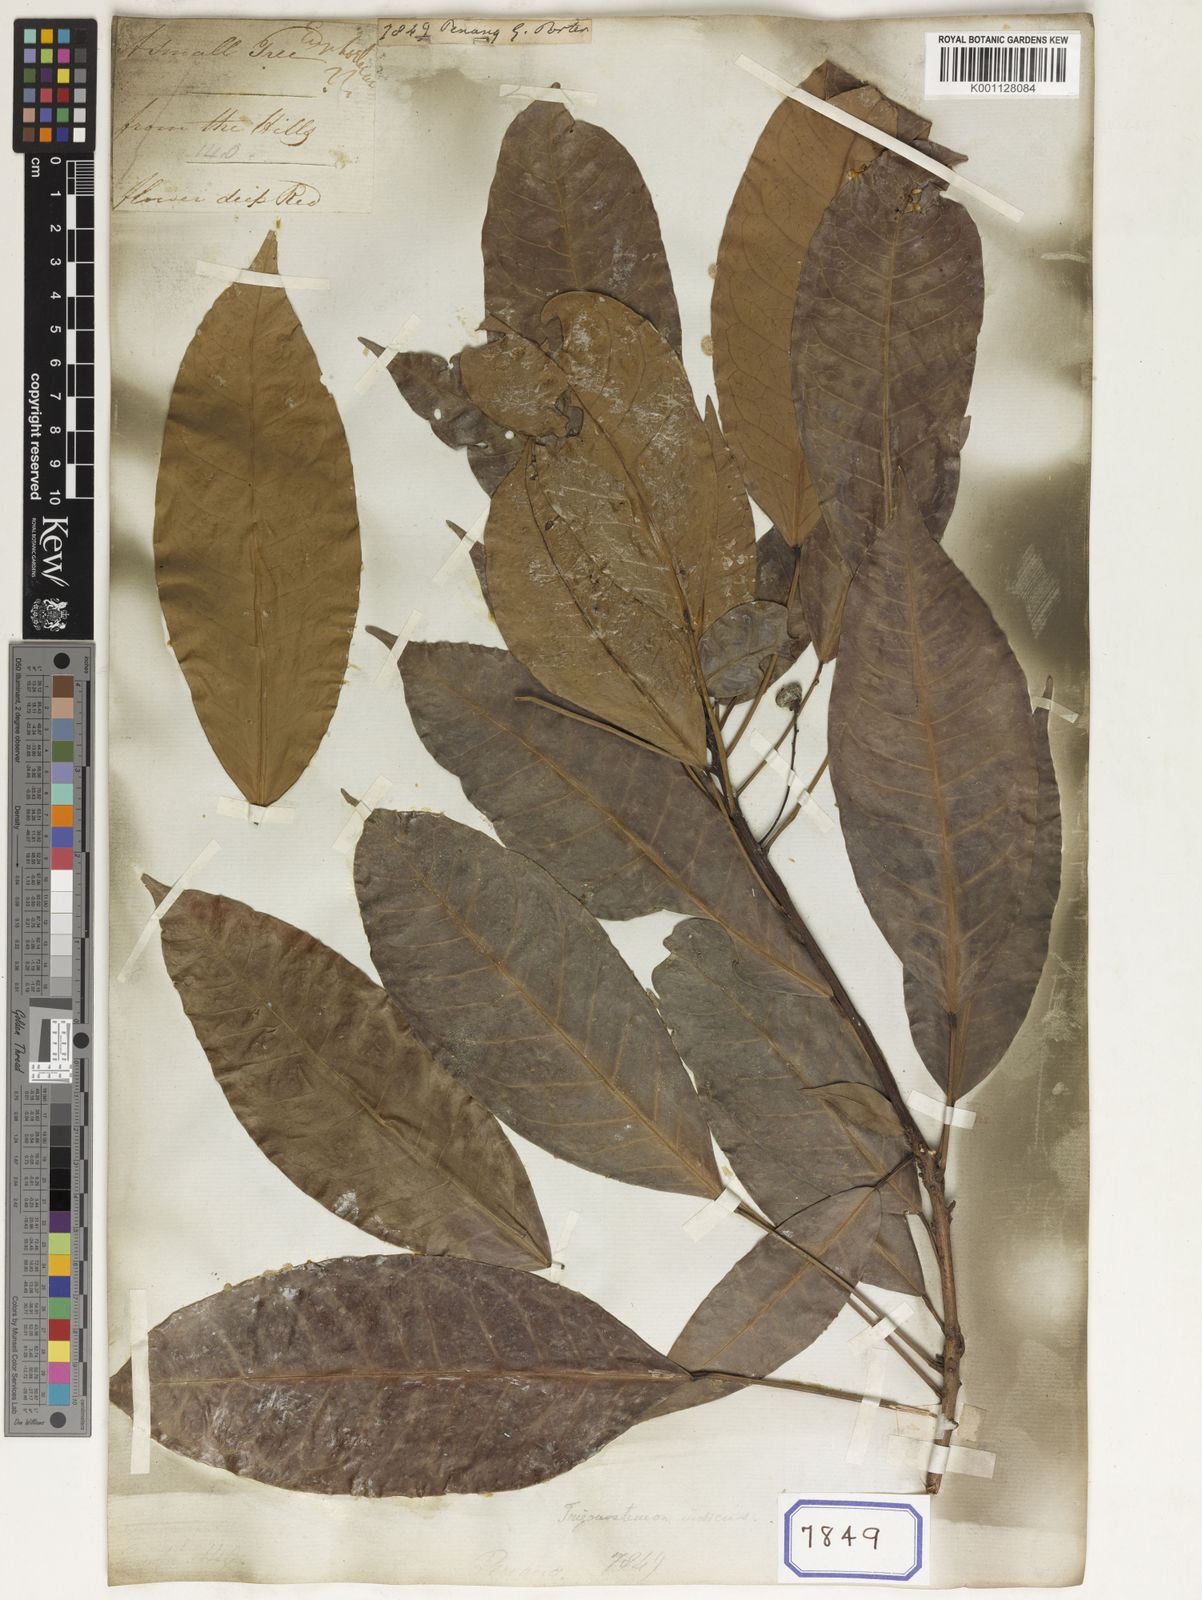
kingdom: Plantae
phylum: Tracheophyta
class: Magnoliopsida
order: Malpighiales
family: Euphorbiaceae
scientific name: Euphorbiaceae
